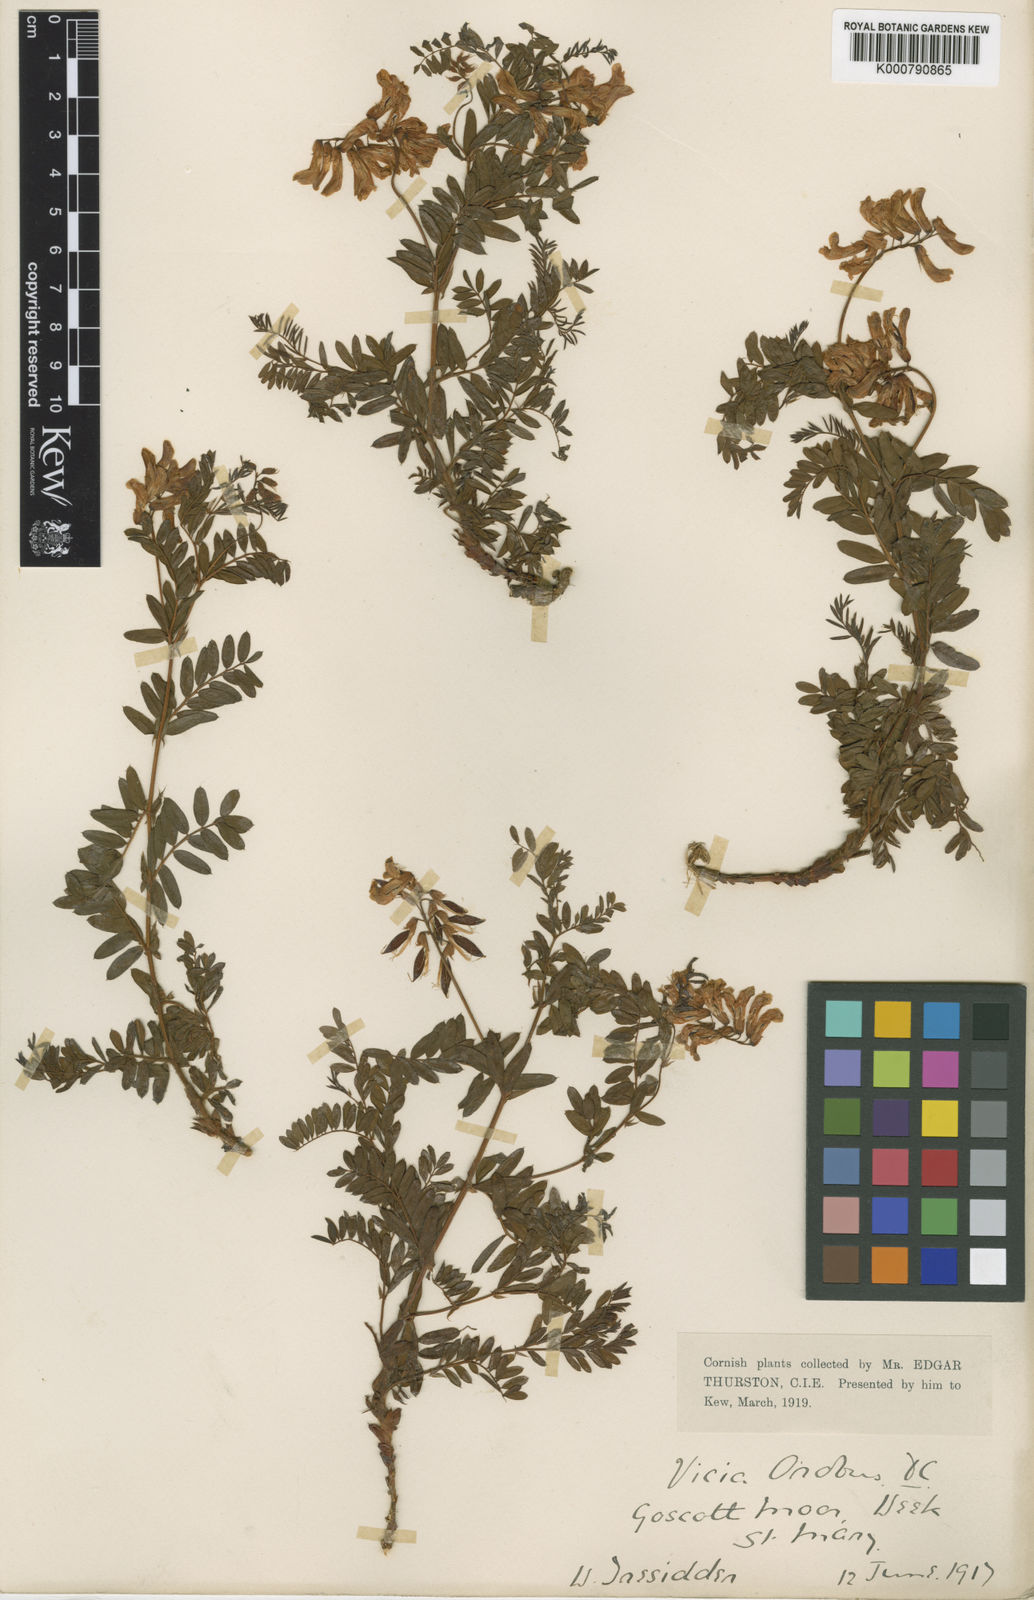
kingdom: Plantae
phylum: Tracheophyta
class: Magnoliopsida
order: Fabales
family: Fabaceae
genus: Vicia
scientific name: Vicia orobus
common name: Wood bitter-vetch
